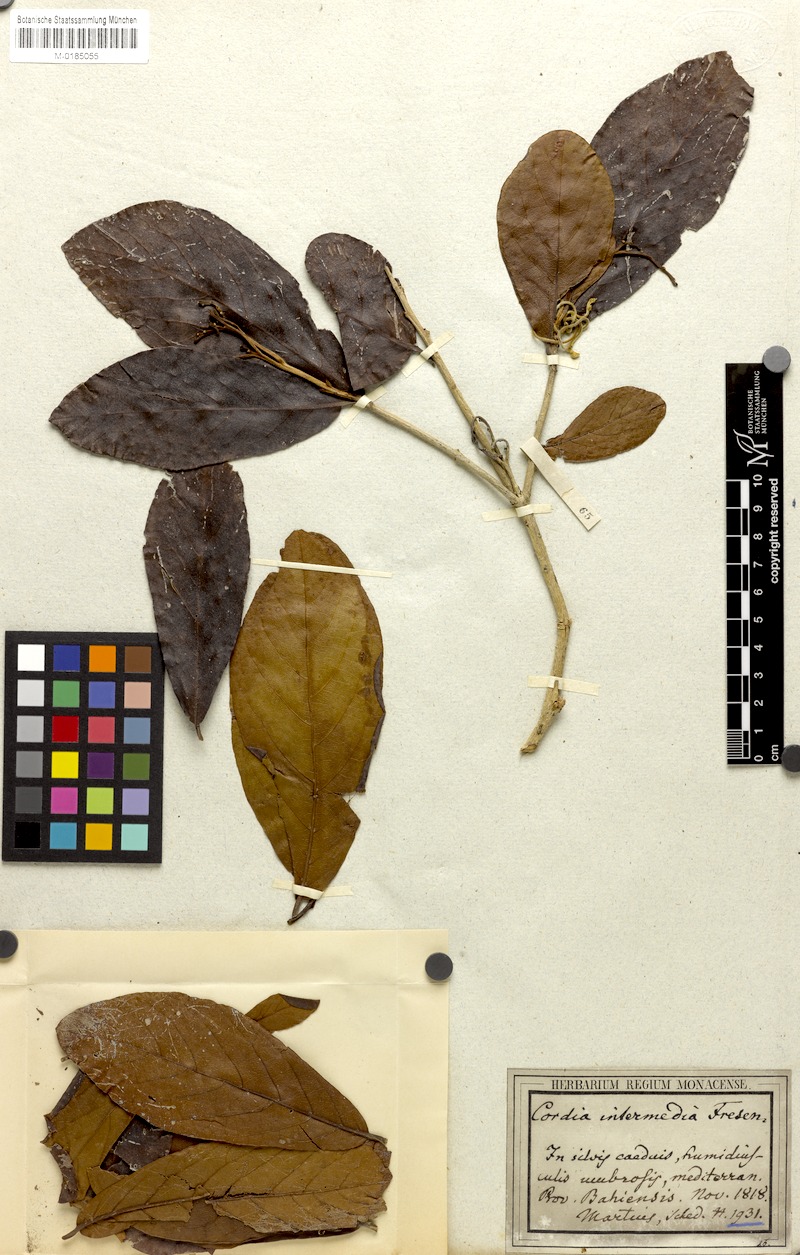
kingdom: Plantae
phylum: Tracheophyta
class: Magnoliopsida
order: Boraginales
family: Cordiaceae
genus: Cordia
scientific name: Cordia intermedia
